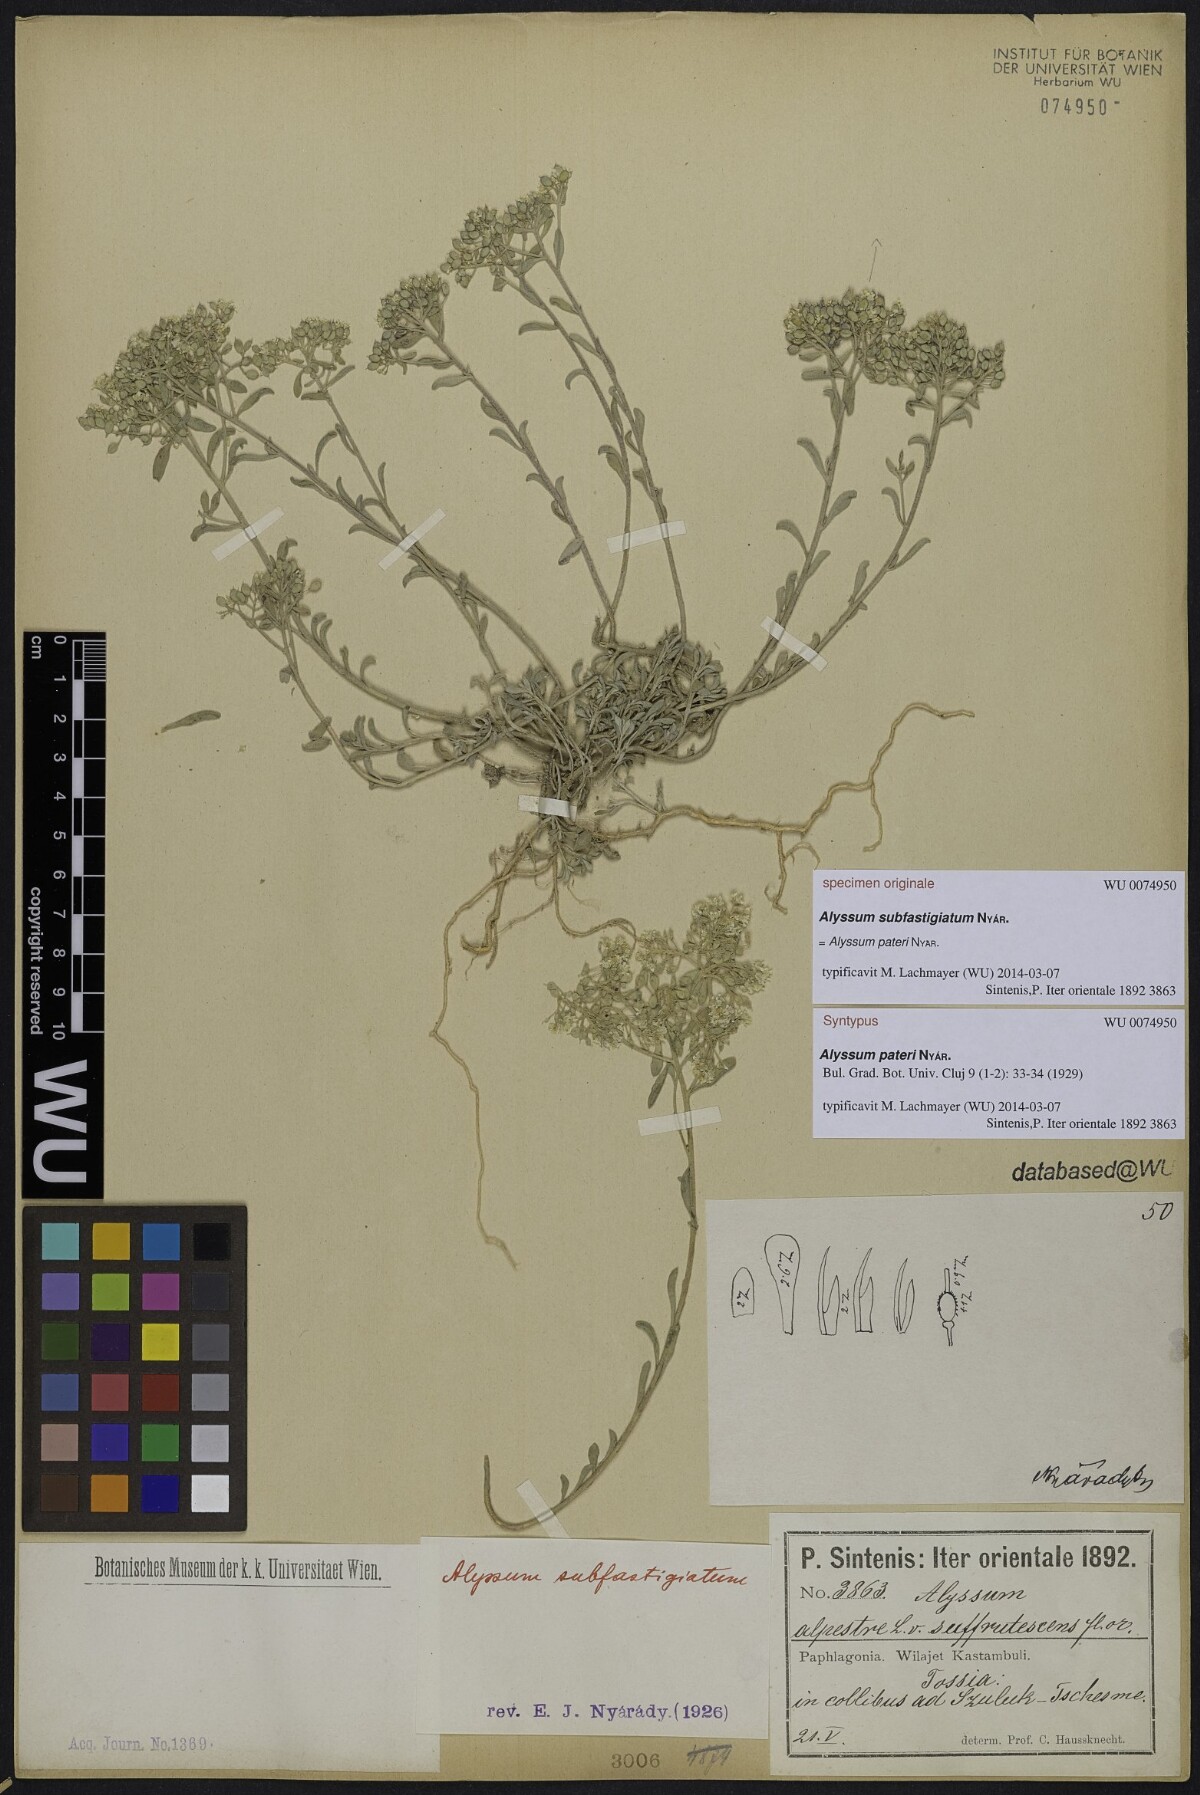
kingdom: Plantae
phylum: Tracheophyta
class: Magnoliopsida
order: Brassicales
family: Brassicaceae
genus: Odontarrhena
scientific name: Odontarrhena pateri
